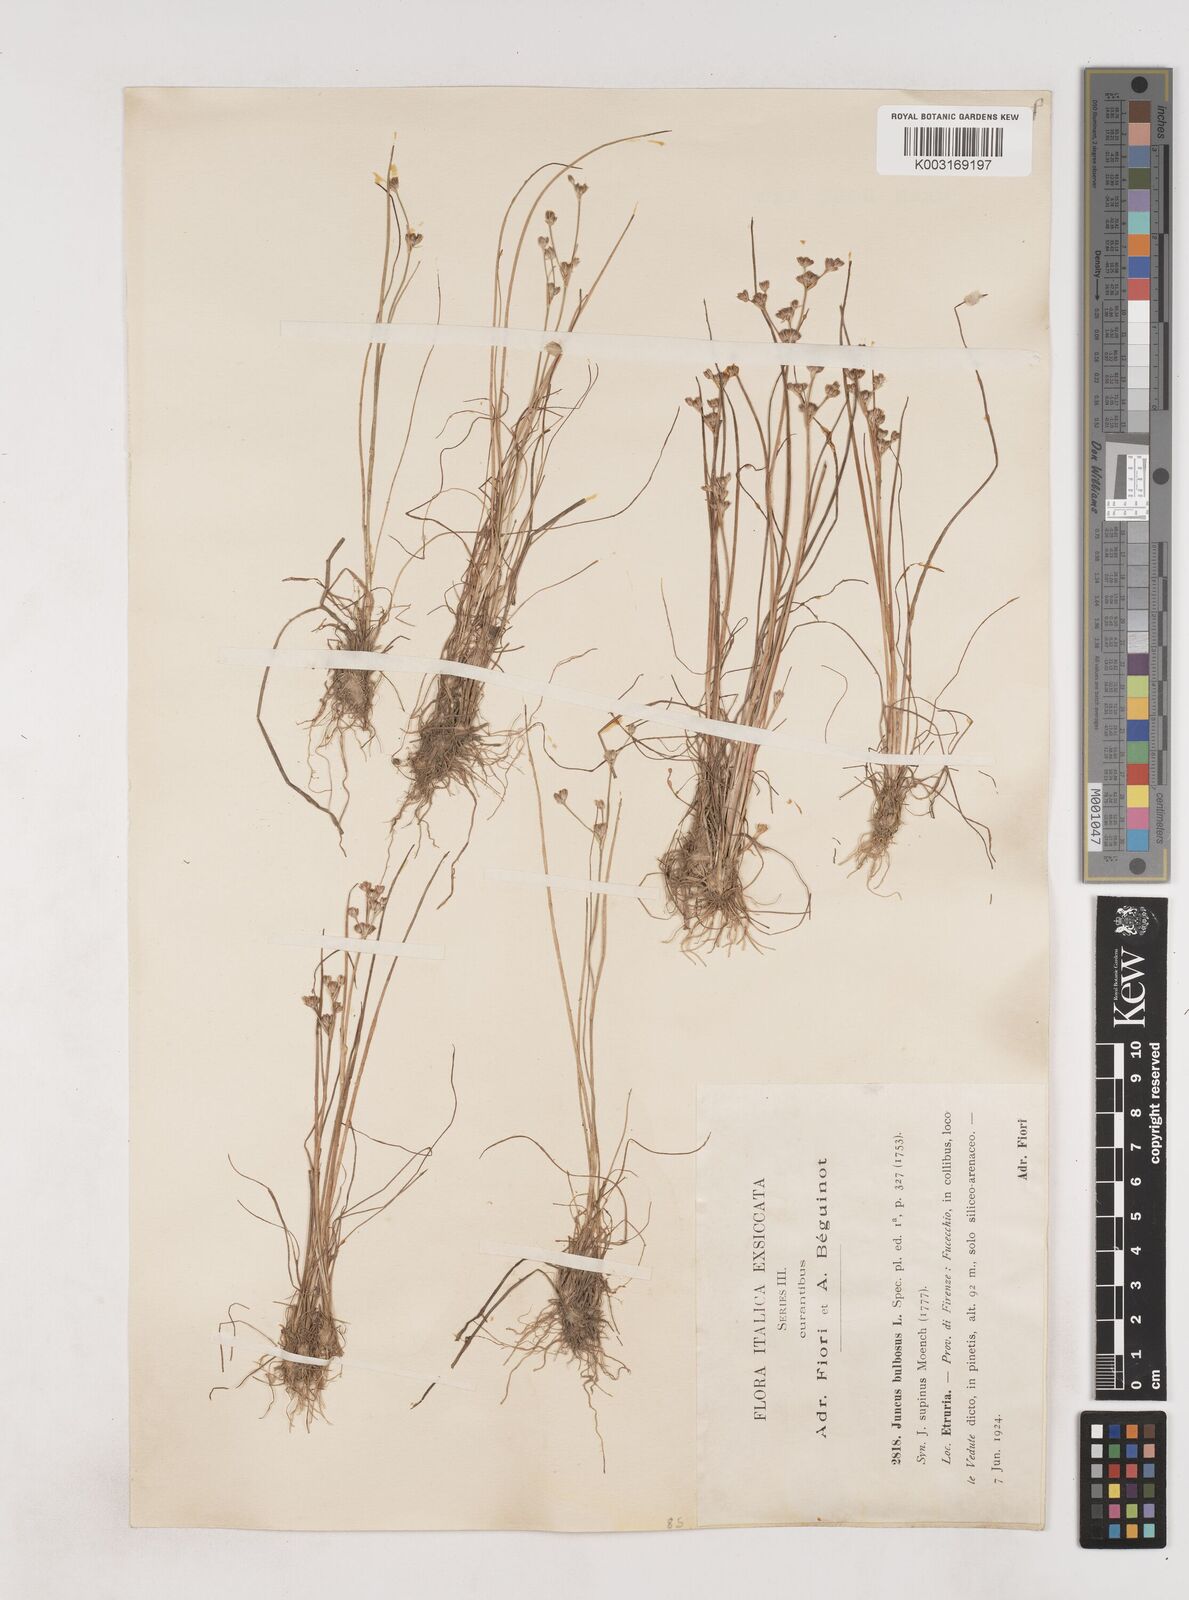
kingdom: Plantae
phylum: Tracheophyta
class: Liliopsida
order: Poales
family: Juncaceae
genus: Juncus
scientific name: Juncus bulbosus
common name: Bulbous rush
